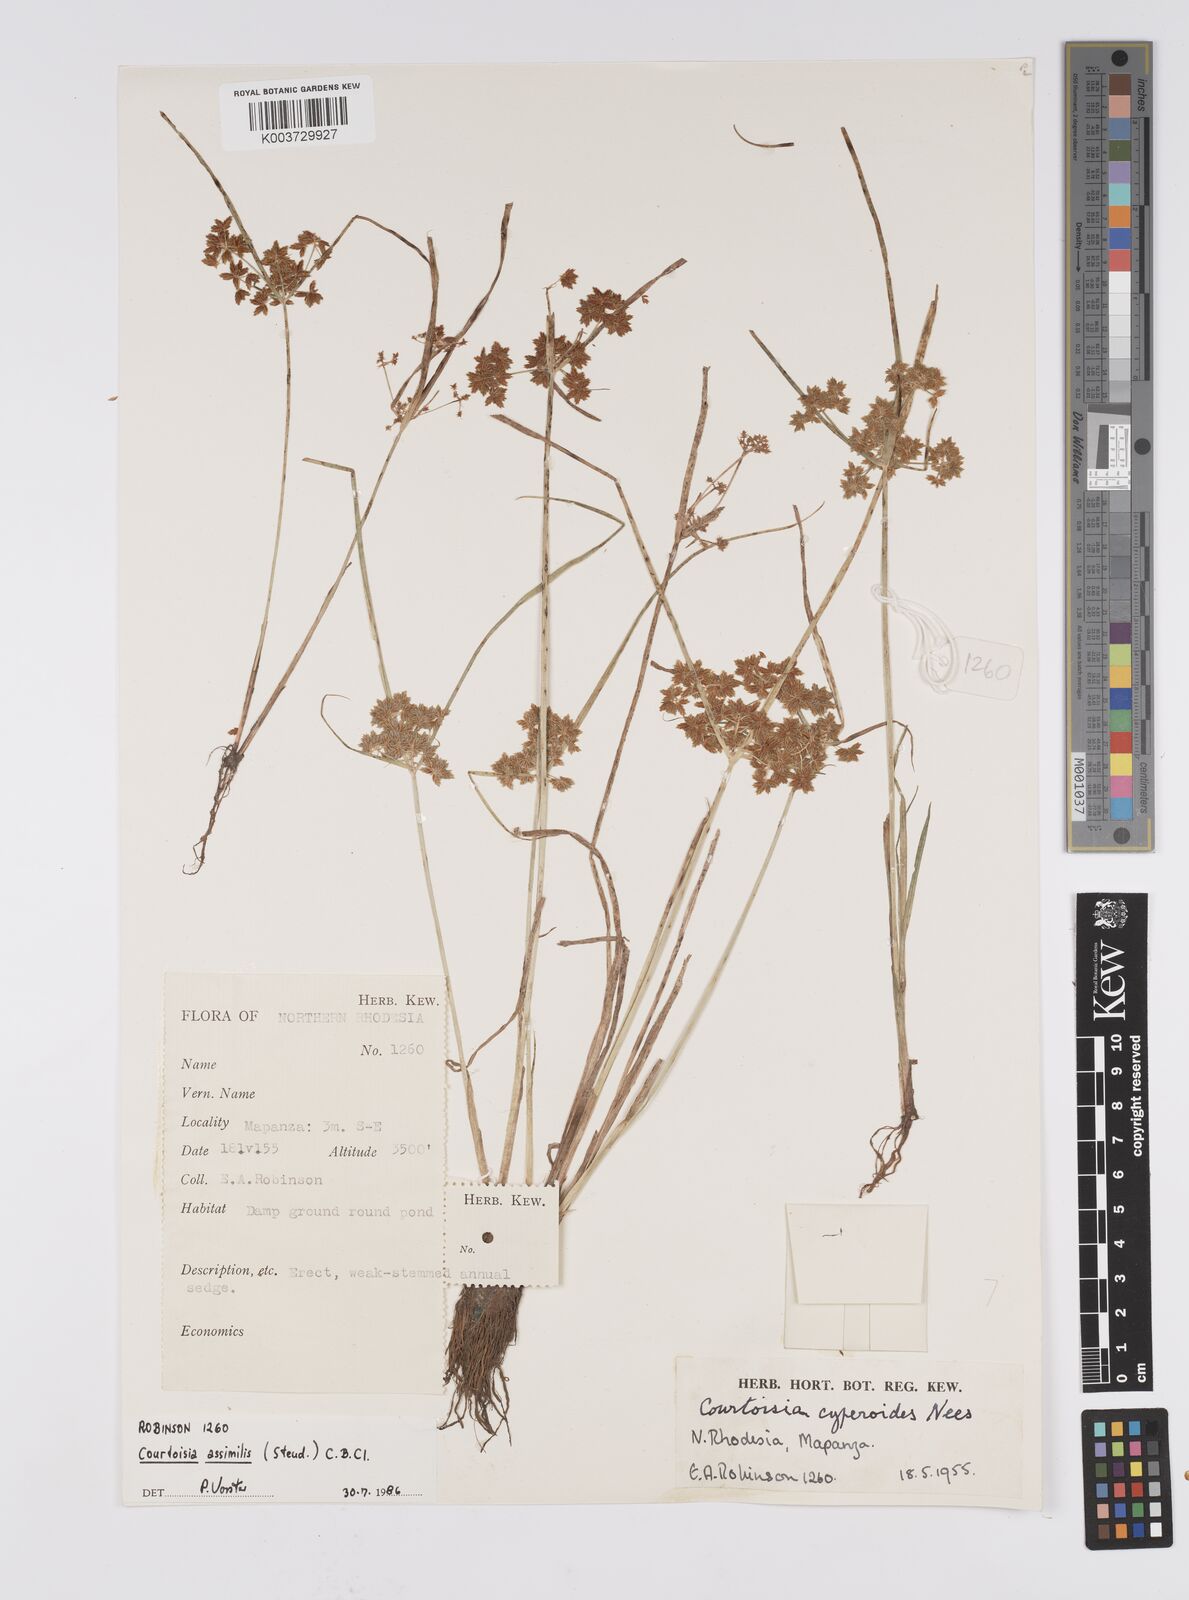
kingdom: Plantae
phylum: Tracheophyta
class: Liliopsida
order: Poales
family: Cyperaceae
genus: Cyperus
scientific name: Cyperus assimilis
